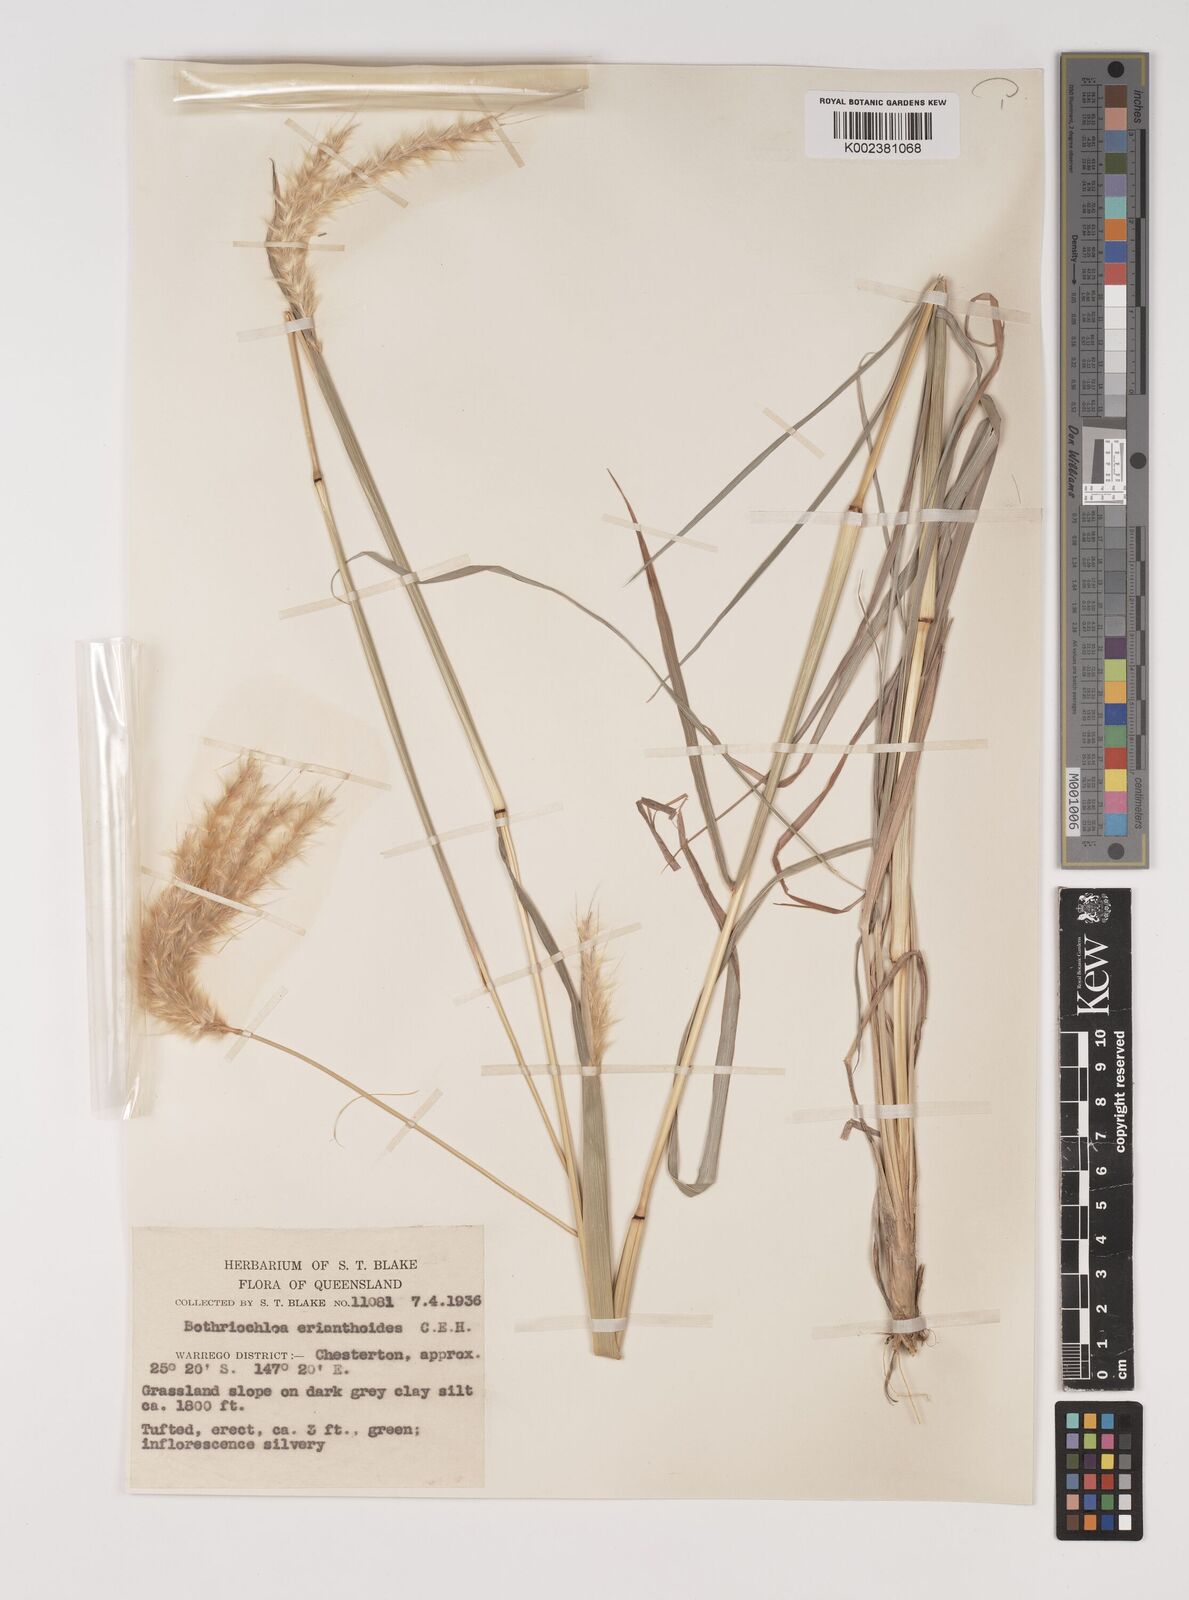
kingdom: Plantae
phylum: Tracheophyta
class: Liliopsida
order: Poales
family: Poaceae
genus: Bothriochloa
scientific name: Bothriochloa erianthoides
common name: Satin-top grass
